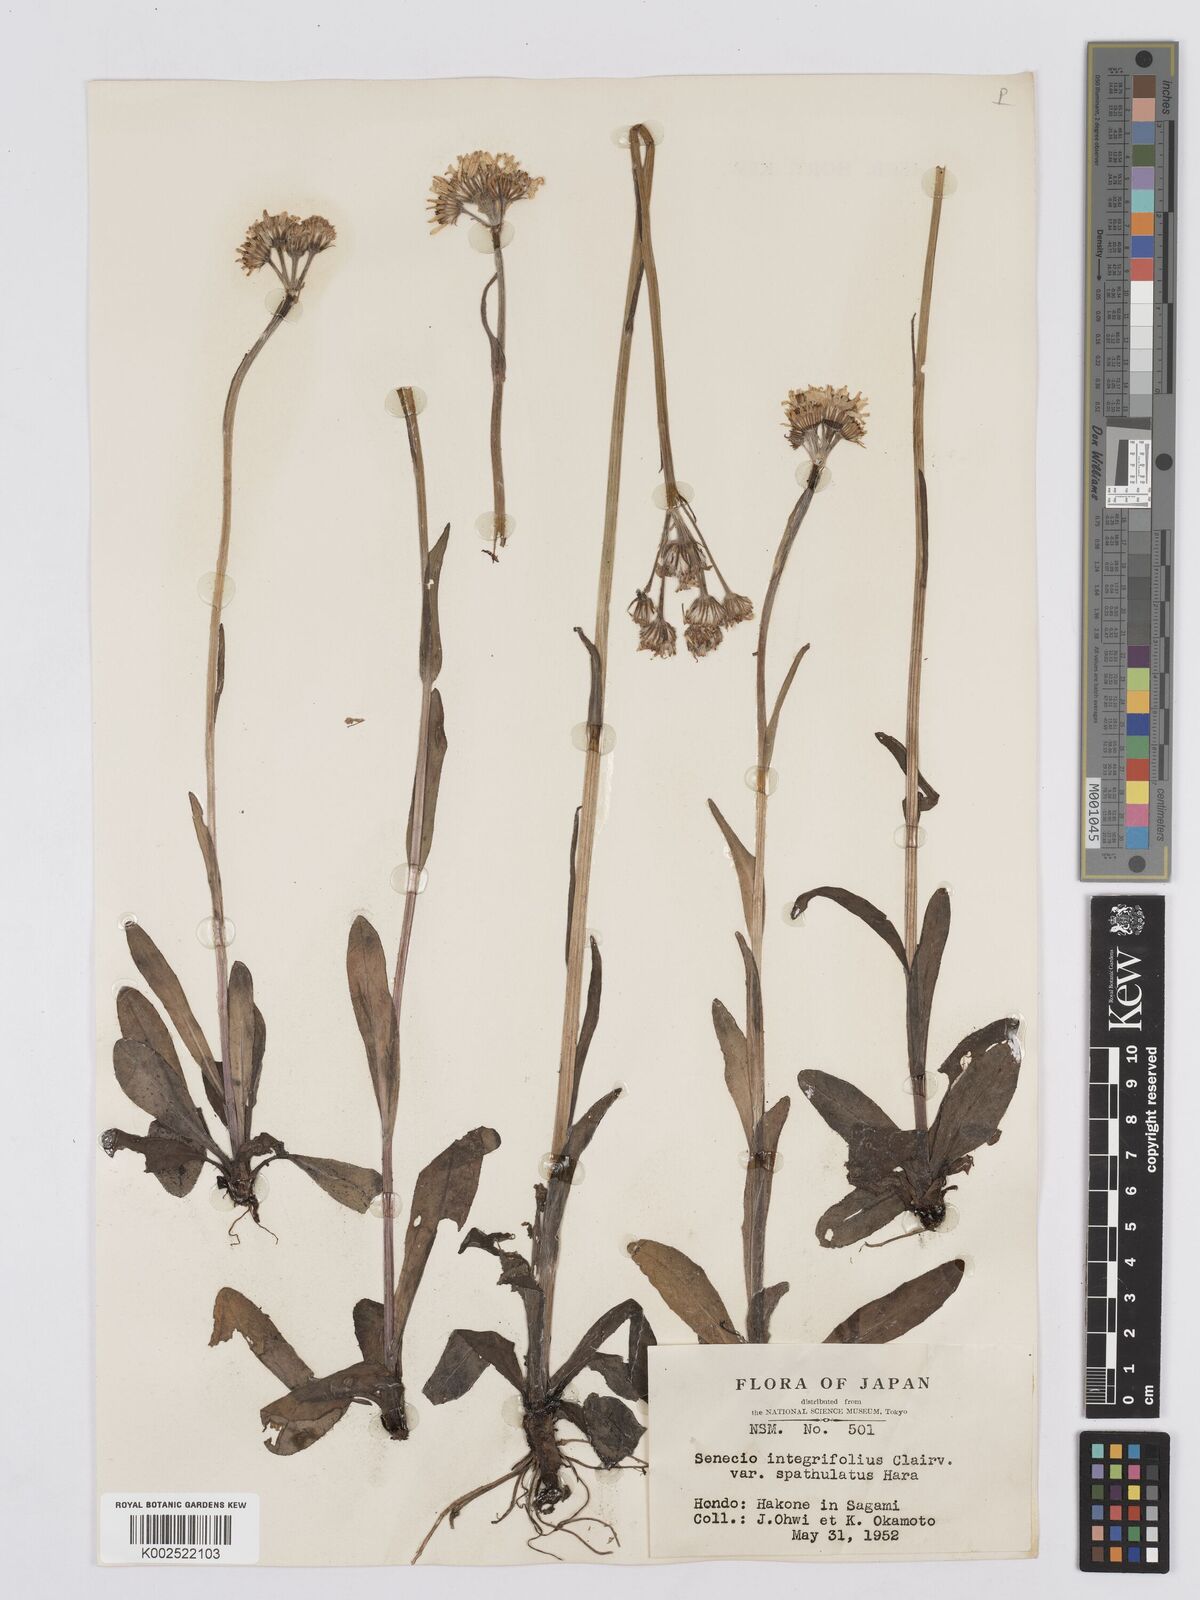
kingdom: Plantae
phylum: Tracheophyta
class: Magnoliopsida
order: Asterales
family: Asteraceae
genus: Tephroseris
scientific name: Tephroseris kirilowii
